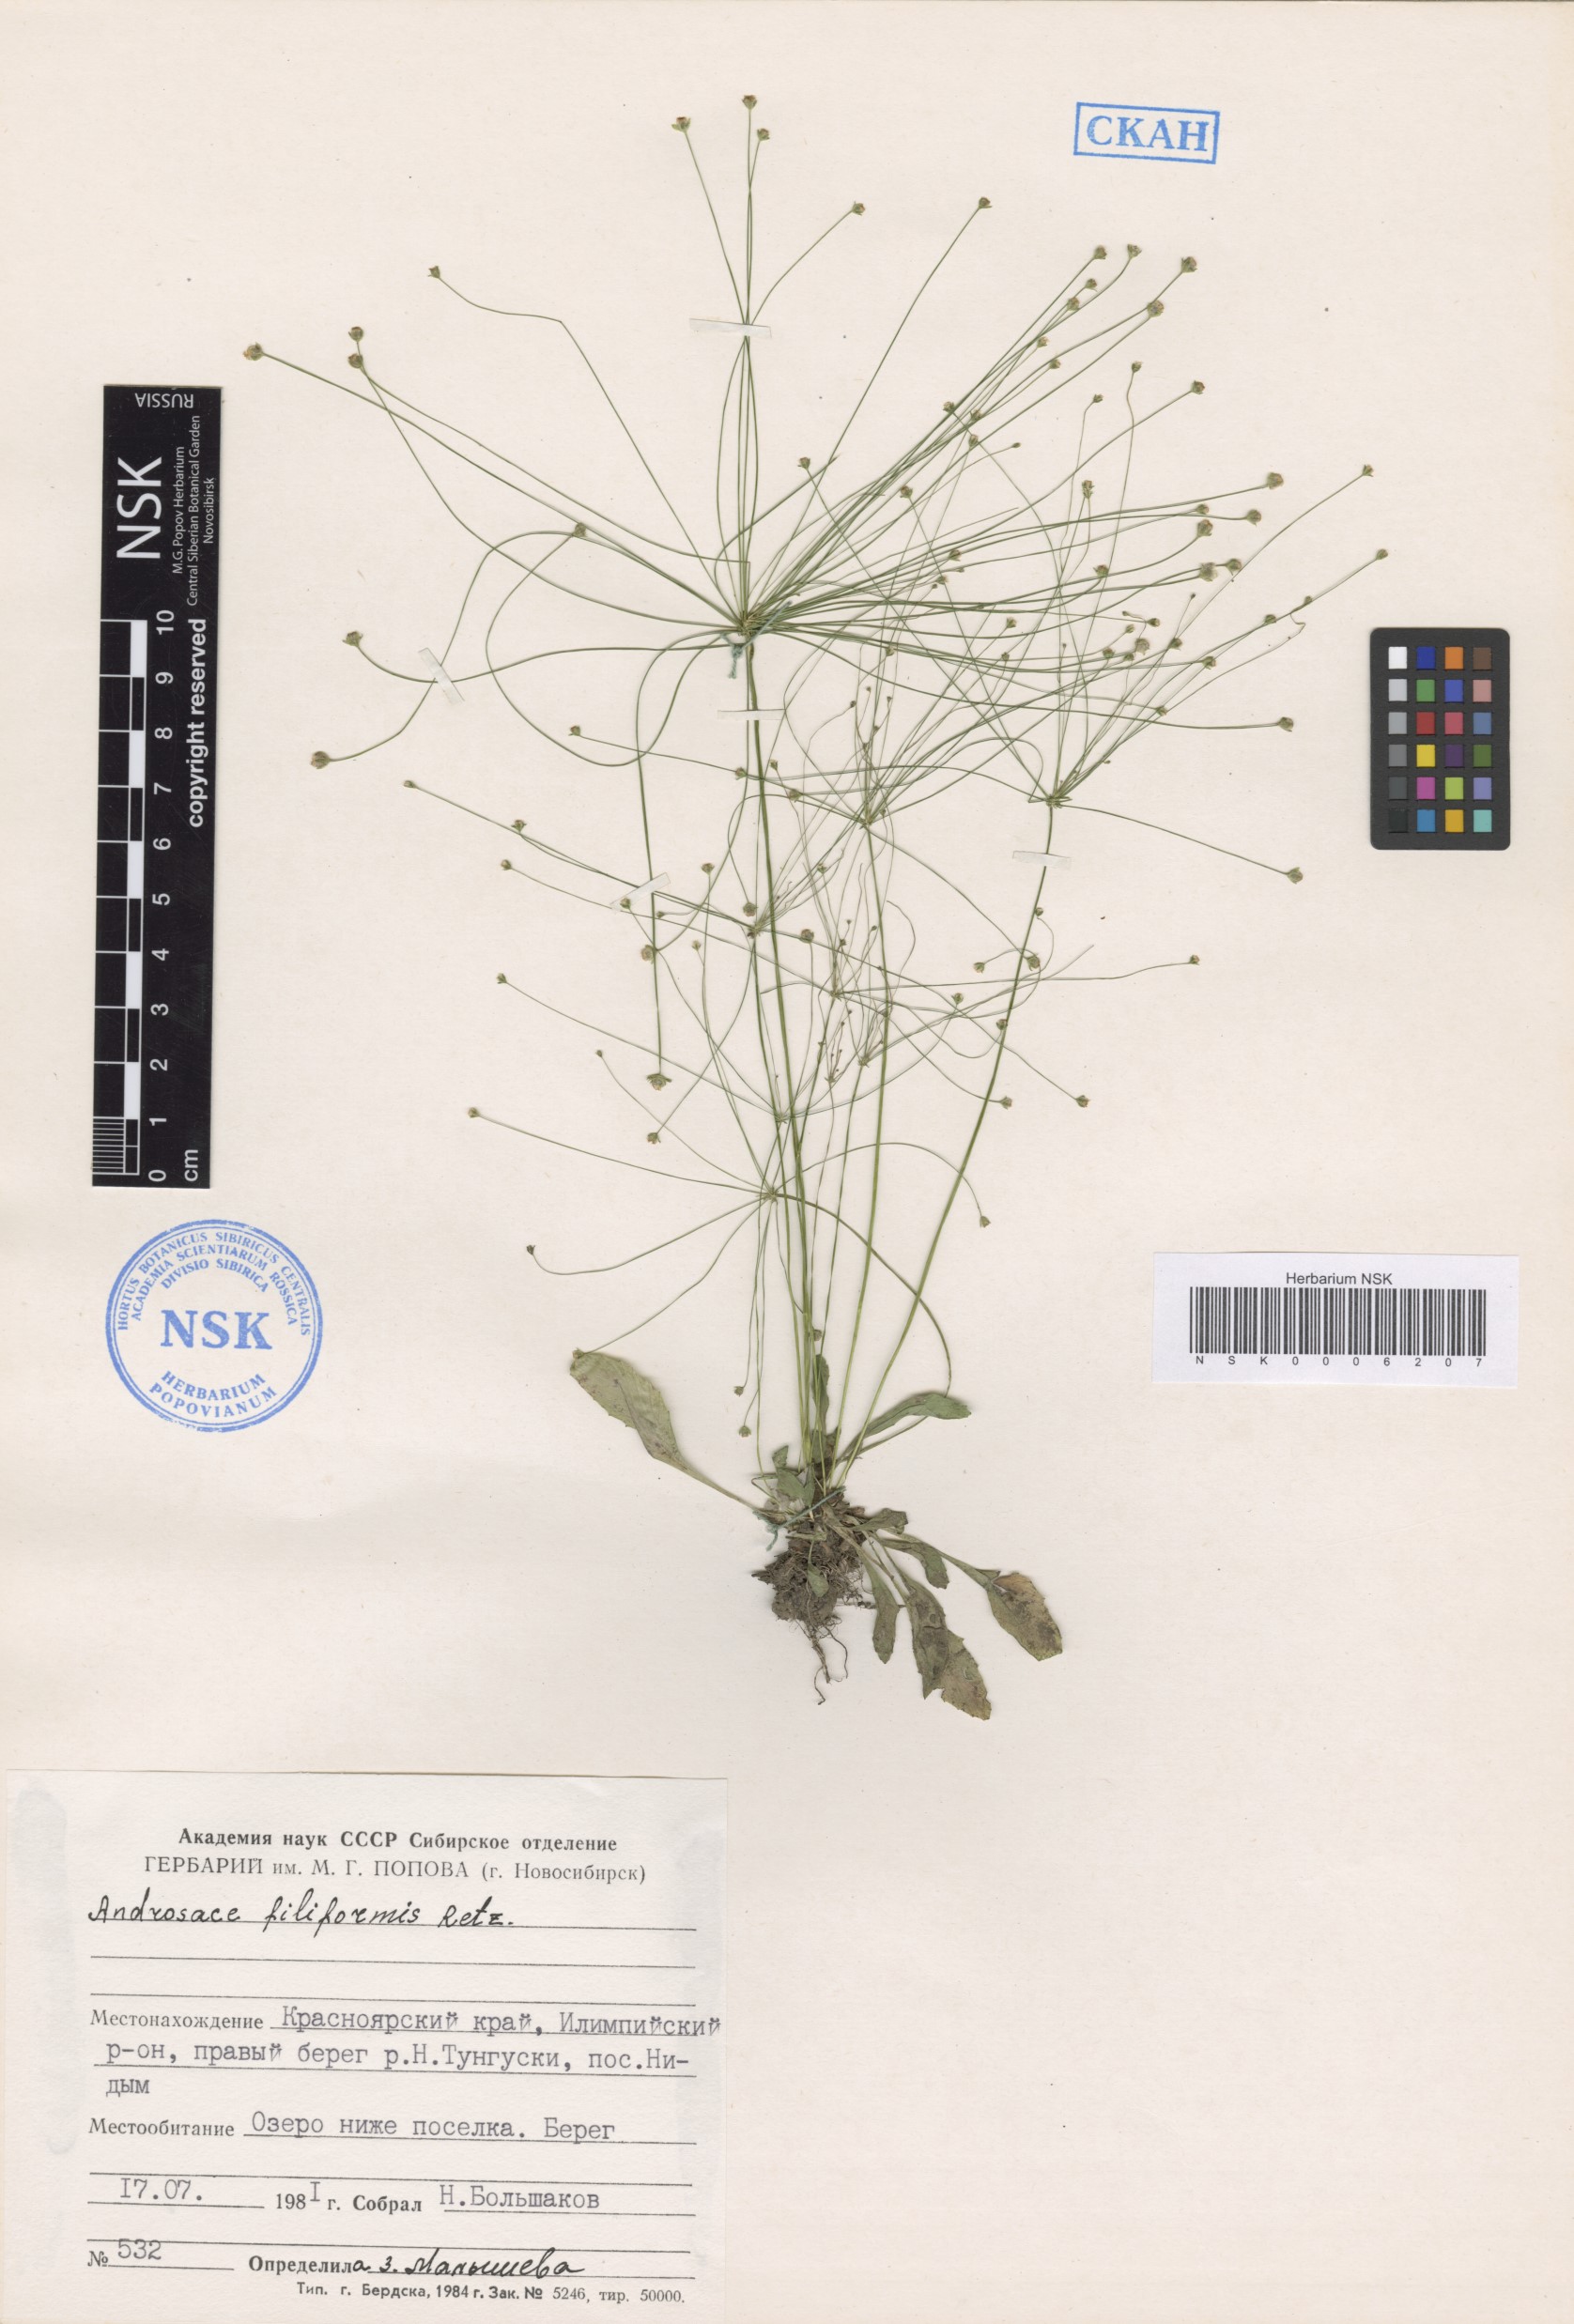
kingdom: Plantae
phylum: Tracheophyta
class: Magnoliopsida
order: Ericales
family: Primulaceae
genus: Androsace
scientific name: Androsace filiformis
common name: Filiform rock jasmine
